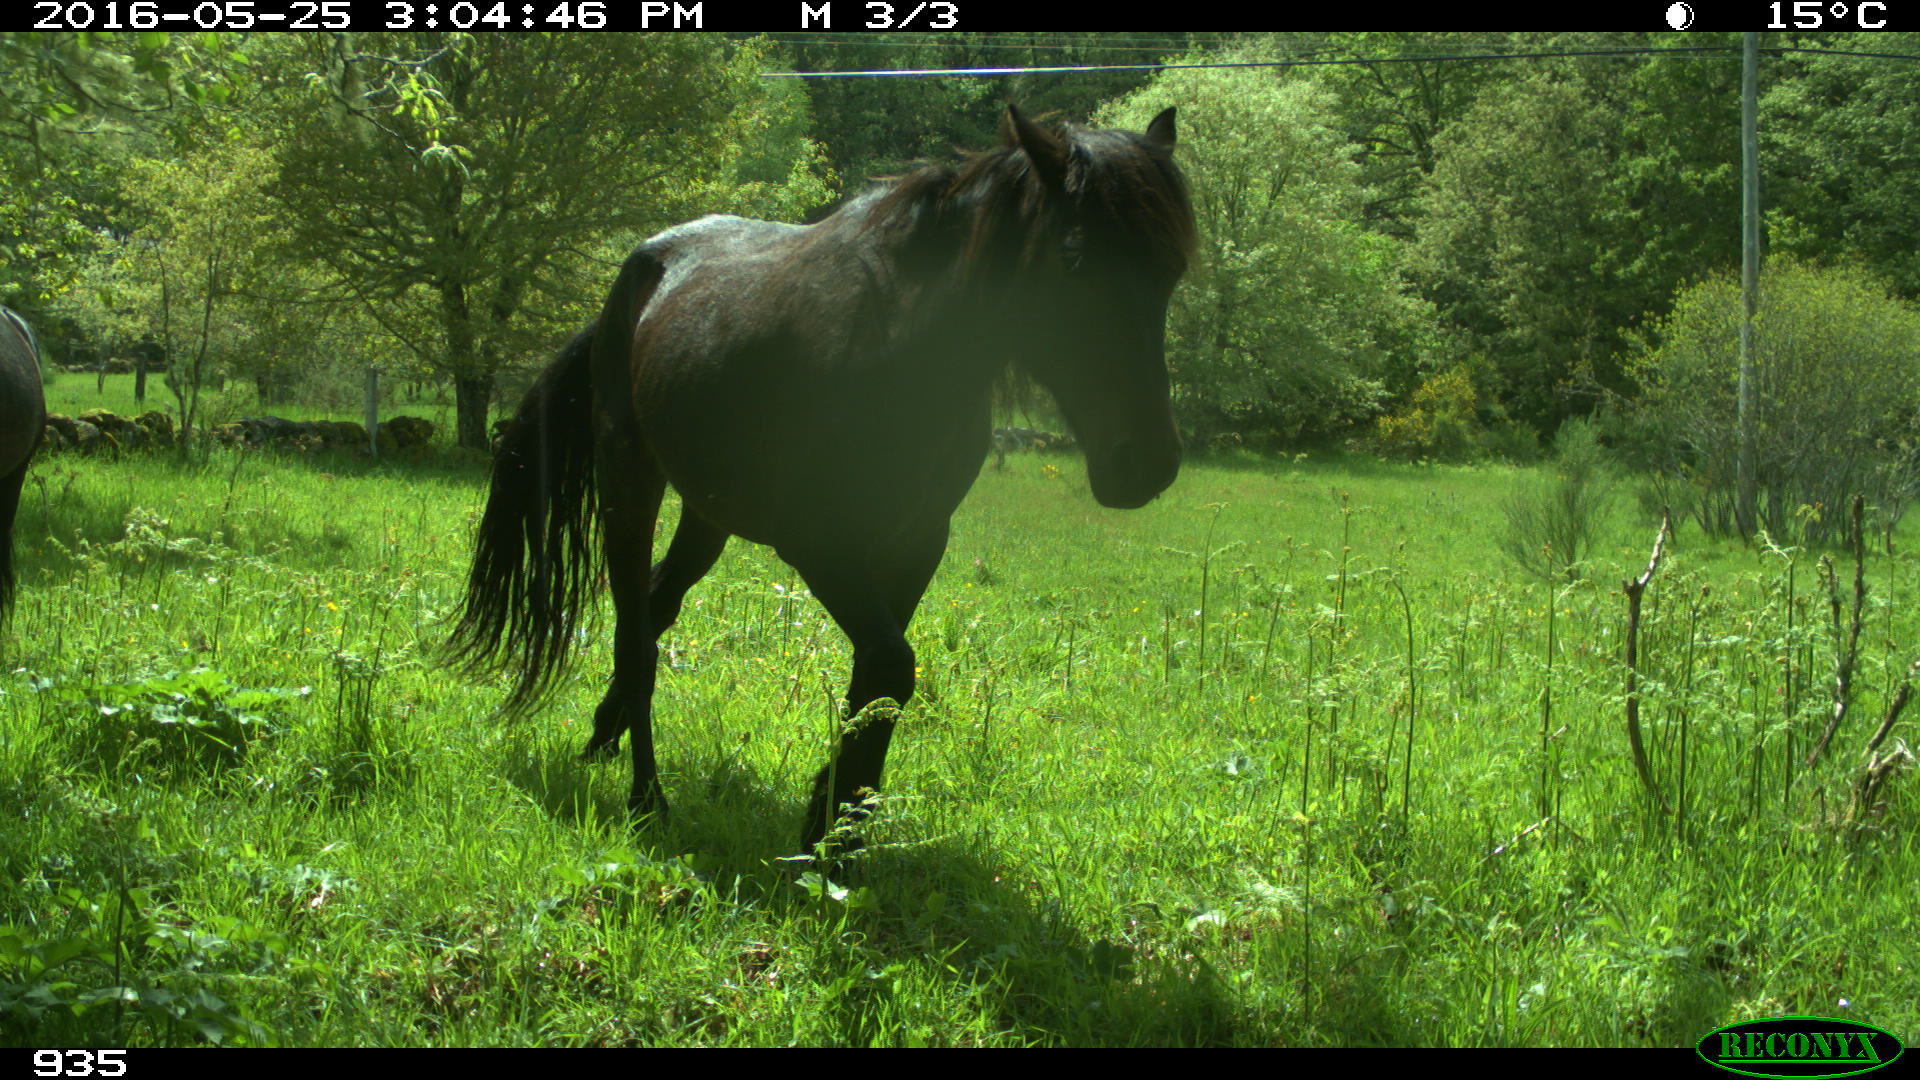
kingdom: Animalia
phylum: Chordata
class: Mammalia
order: Perissodactyla
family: Equidae
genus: Equus
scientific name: Equus caballus
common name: Horse
